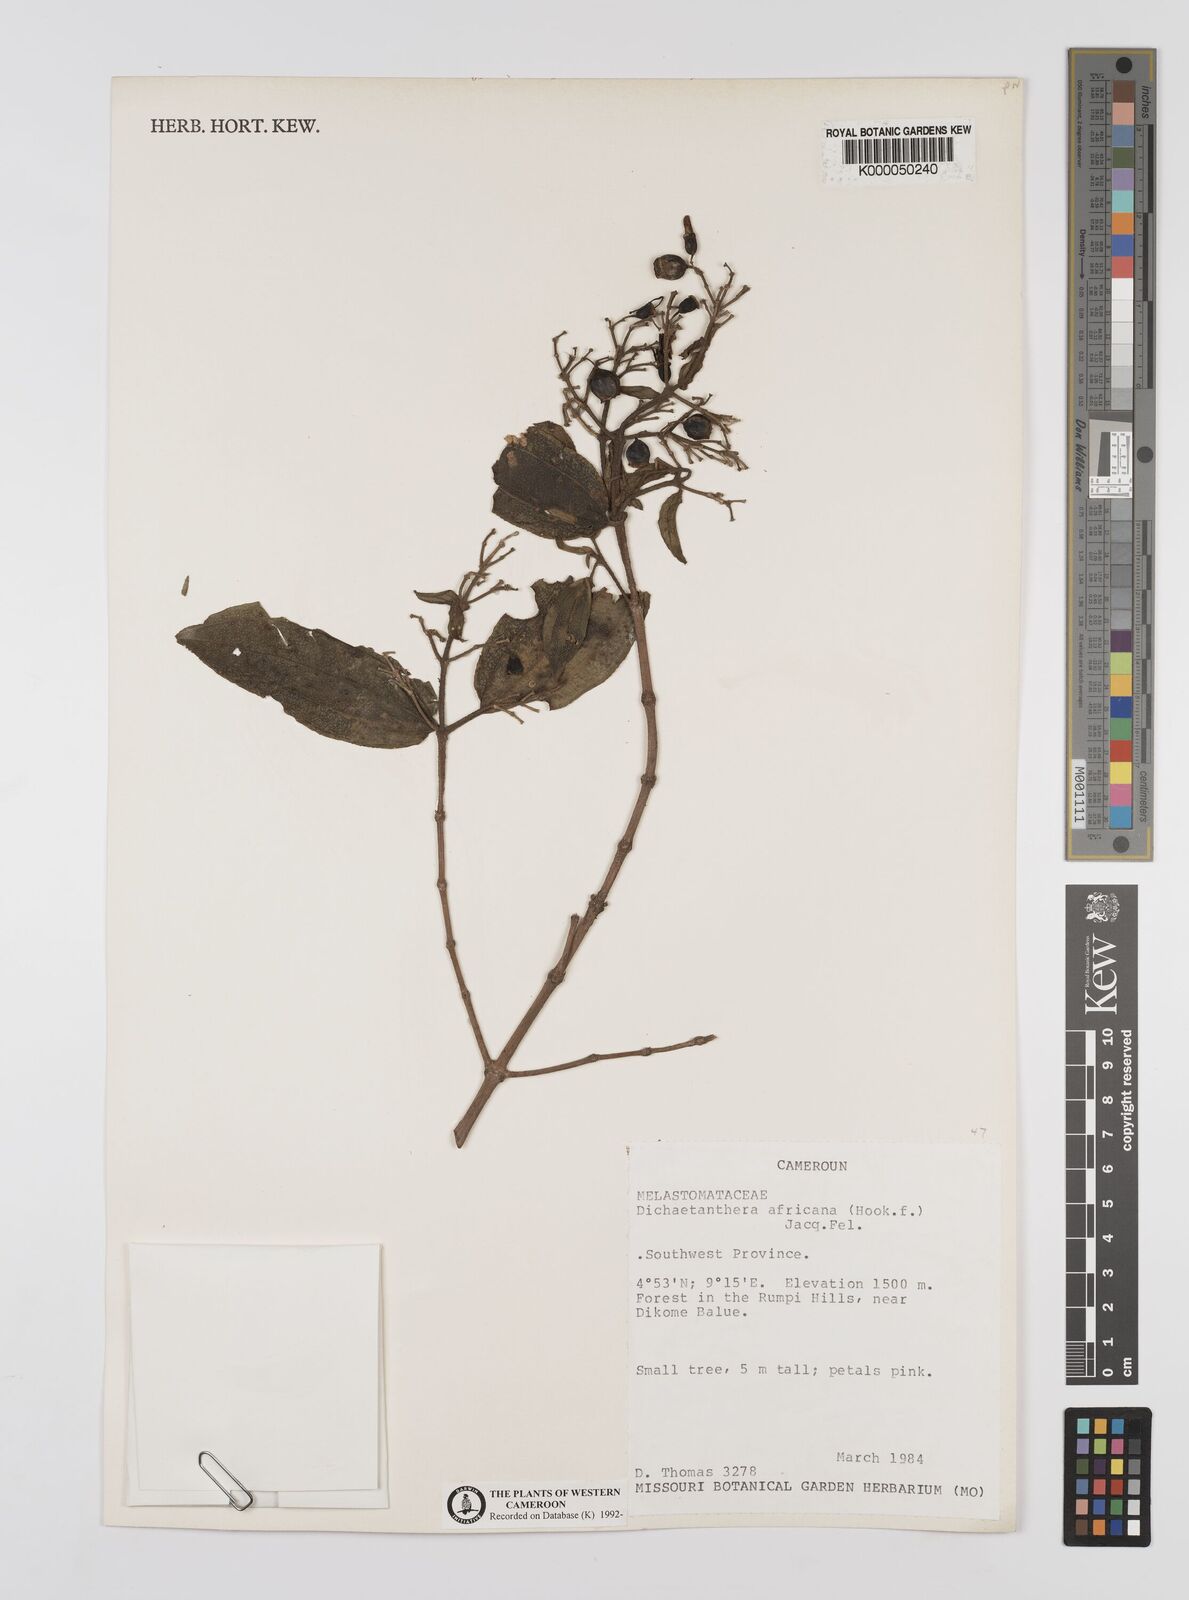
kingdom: Plantae
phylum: Tracheophyta
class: Magnoliopsida
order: Myrtales
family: Melastomataceae
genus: Dichaetanthera
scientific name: Dichaetanthera
